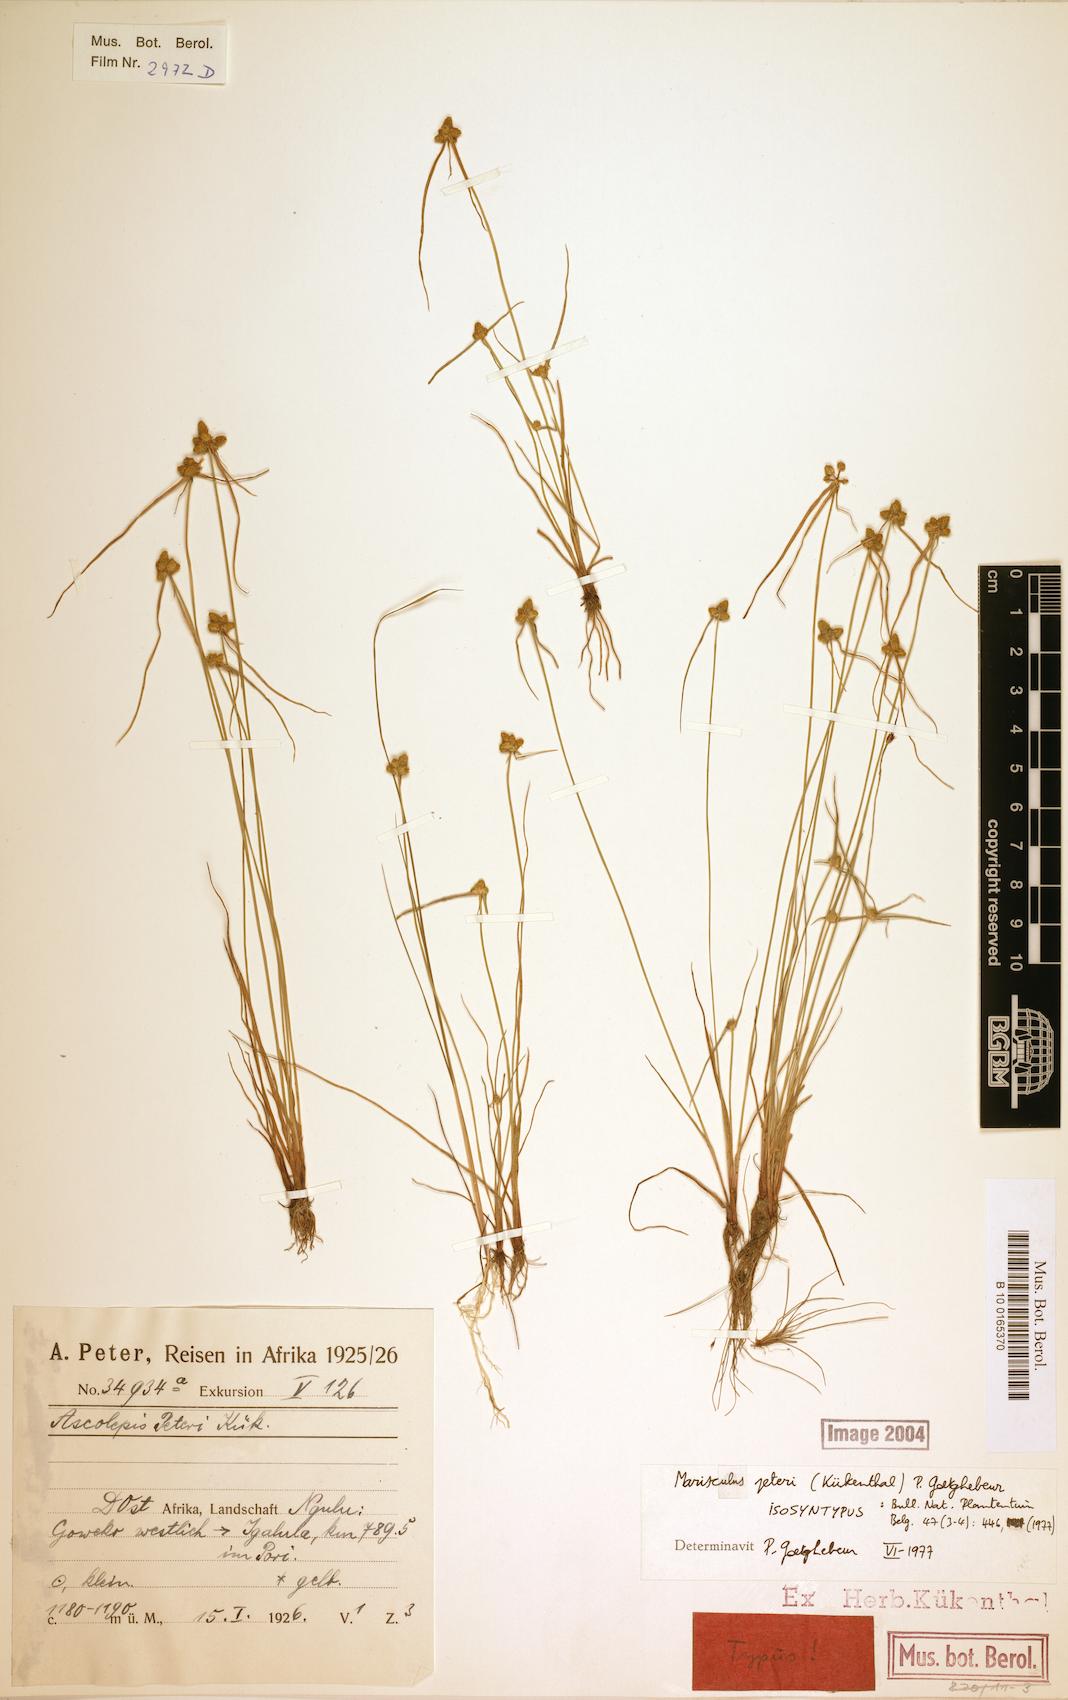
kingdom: Plantae
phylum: Tracheophyta
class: Liliopsida
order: Poales
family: Cyperaceae
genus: Cyperus
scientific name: Cyperus microaureus
